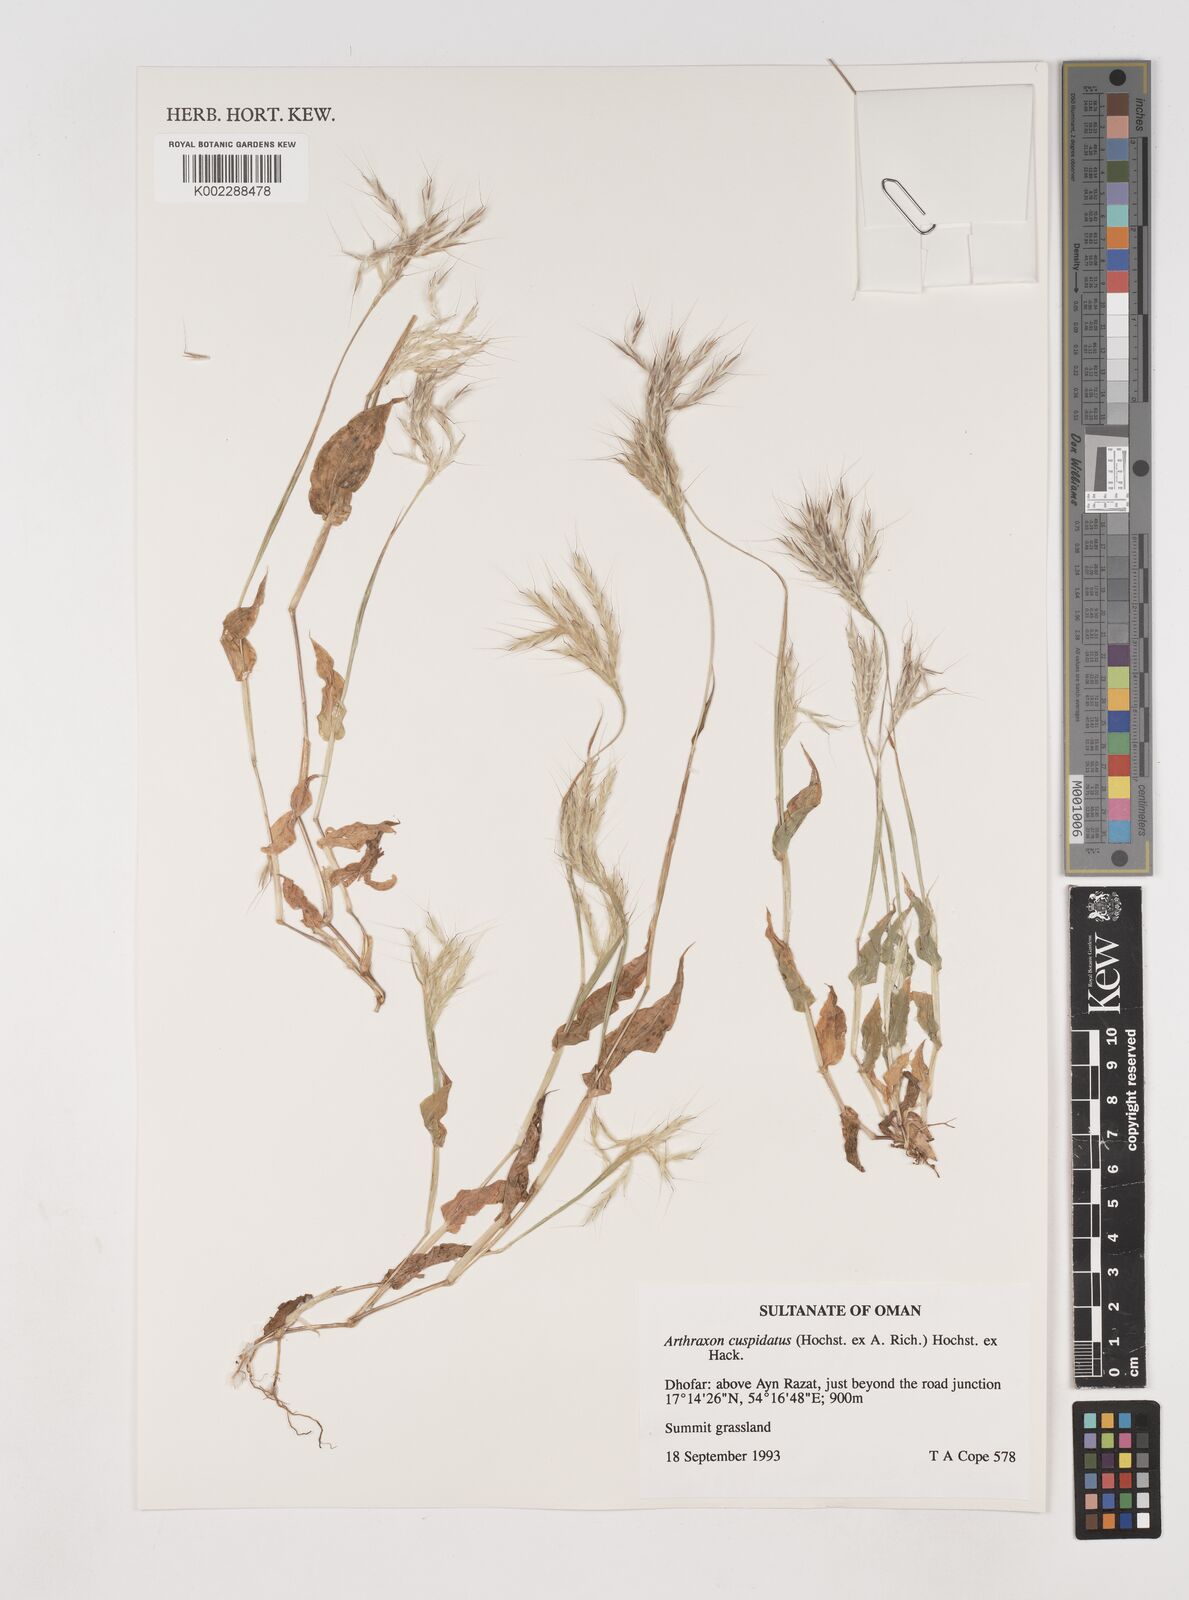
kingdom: Plantae
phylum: Tracheophyta
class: Liliopsida
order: Poales
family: Poaceae
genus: Arthraxon
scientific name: Arthraxon cuspidatus
